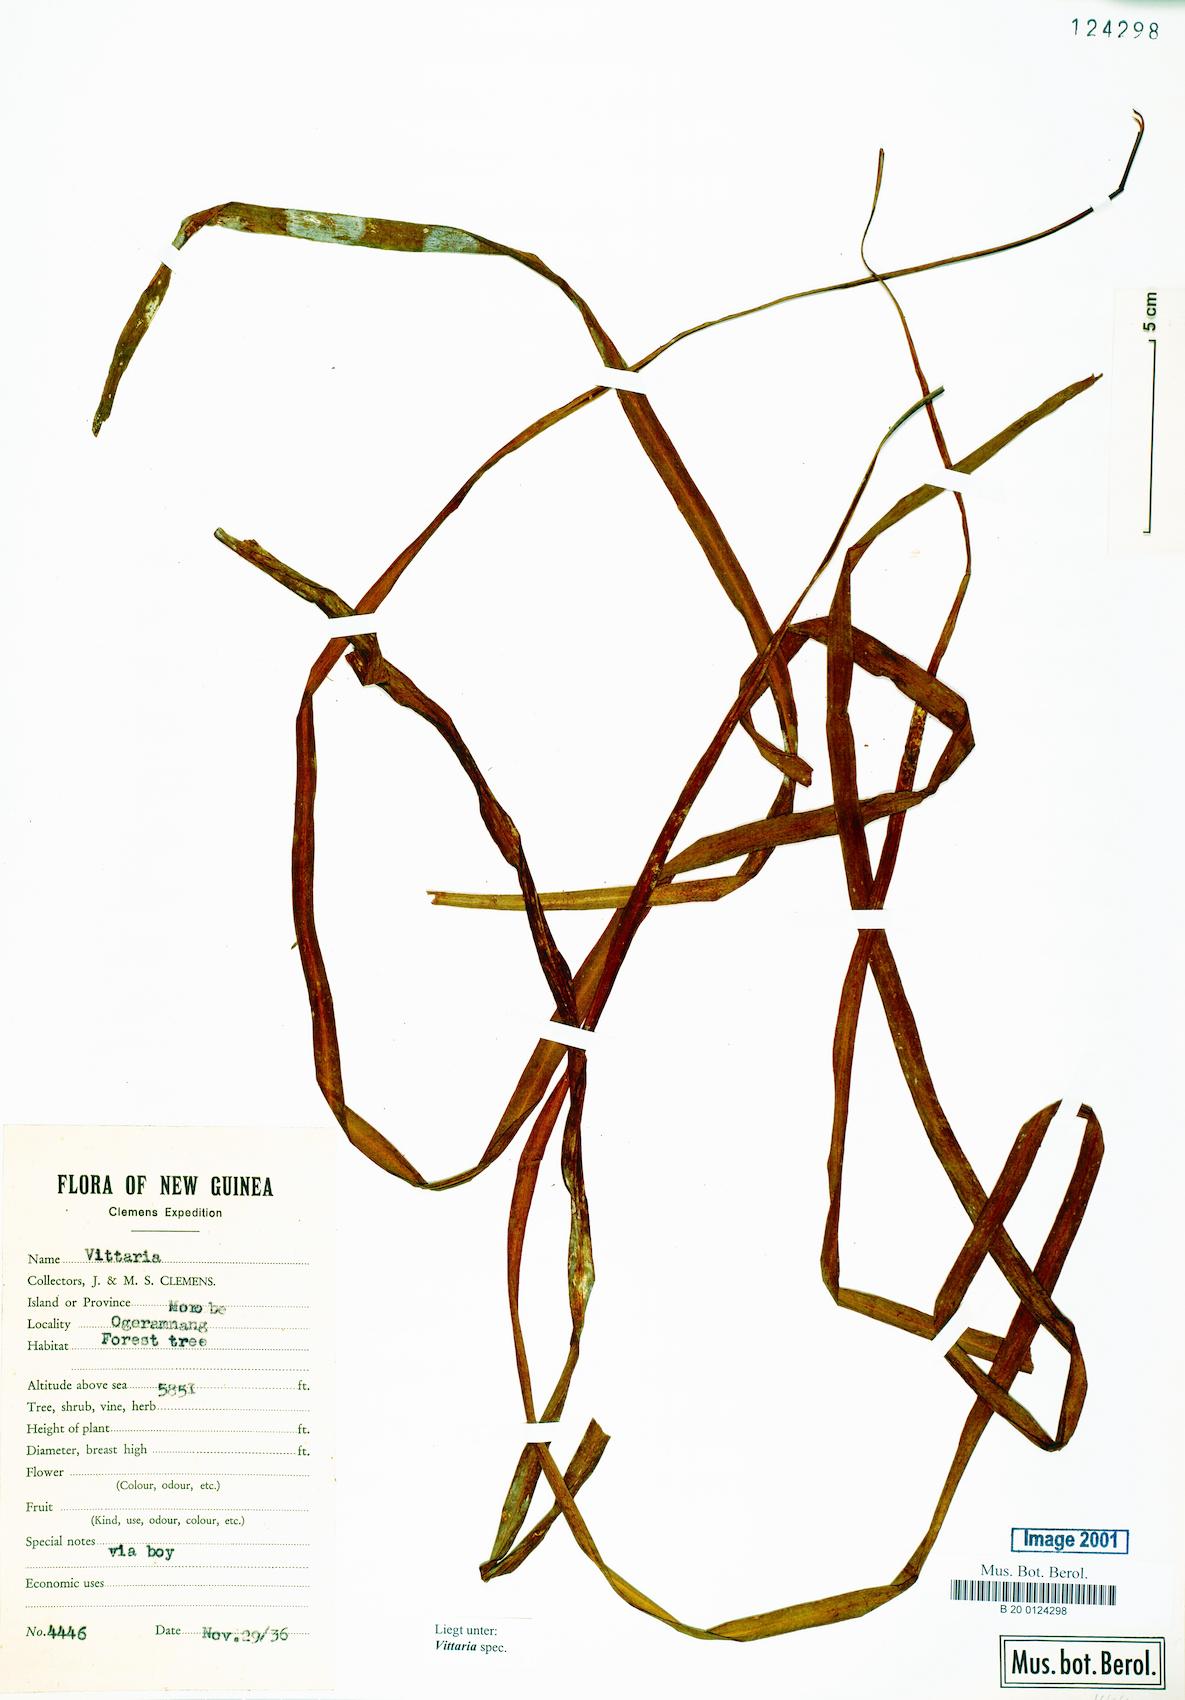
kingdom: Plantae
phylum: Tracheophyta
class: Polypodiopsida
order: Polypodiales
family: Pteridaceae
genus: Vittaria
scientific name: Vittaria
